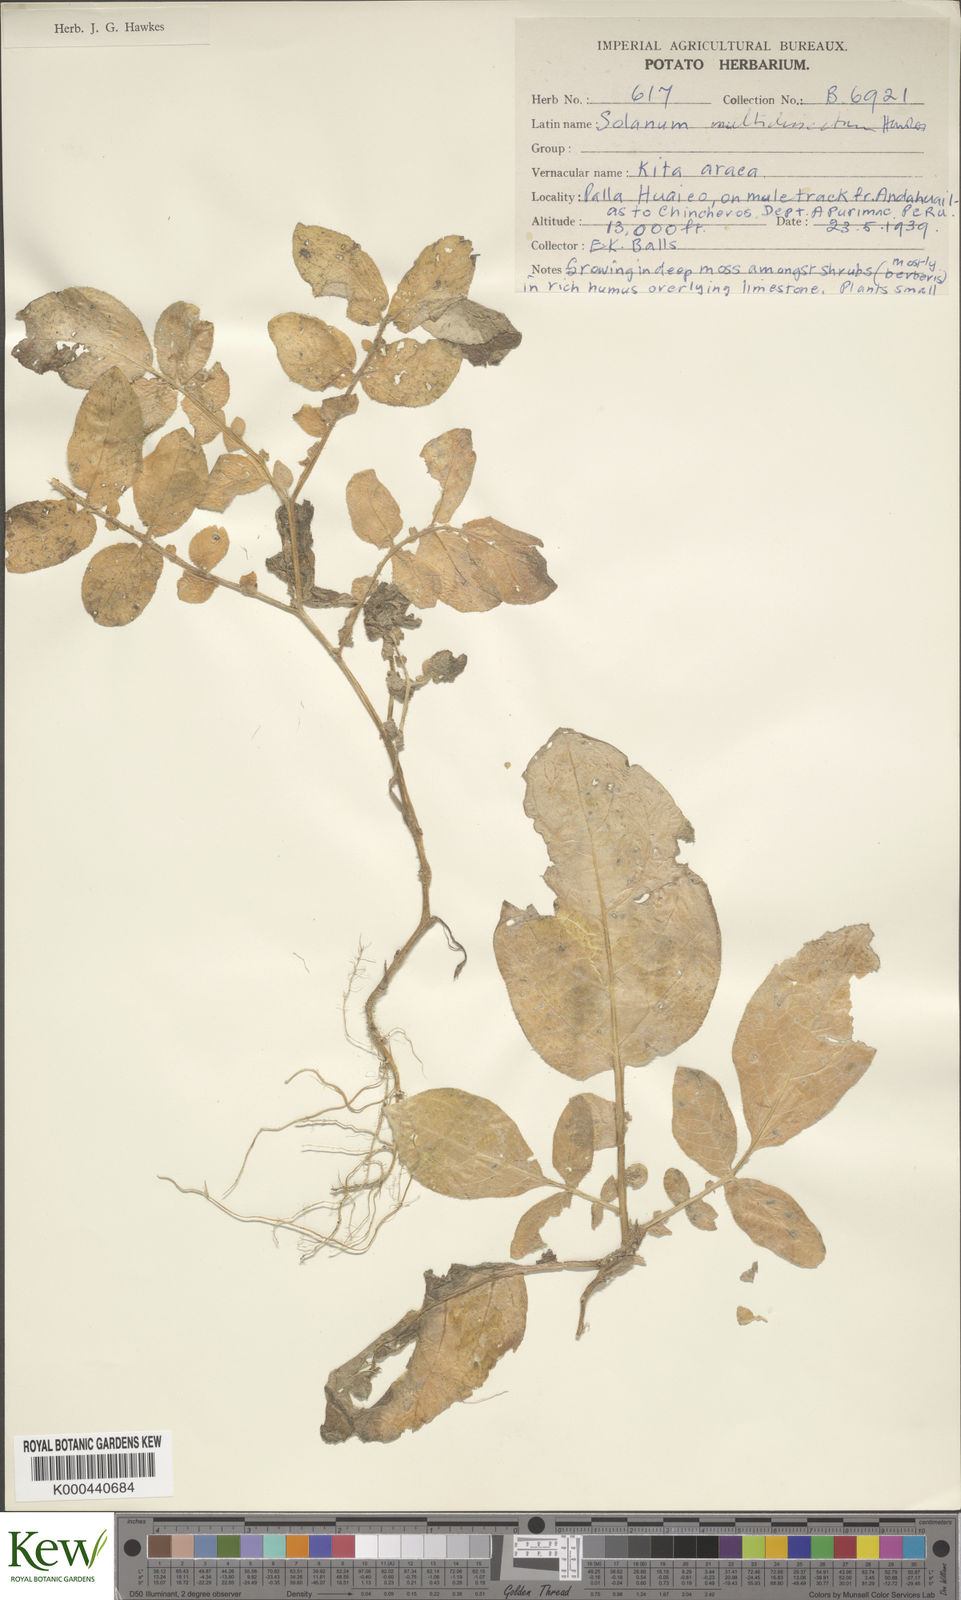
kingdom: Plantae
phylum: Tracheophyta
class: Magnoliopsida
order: Solanales
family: Solanaceae
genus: Solanum
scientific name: Solanum candolleanum
